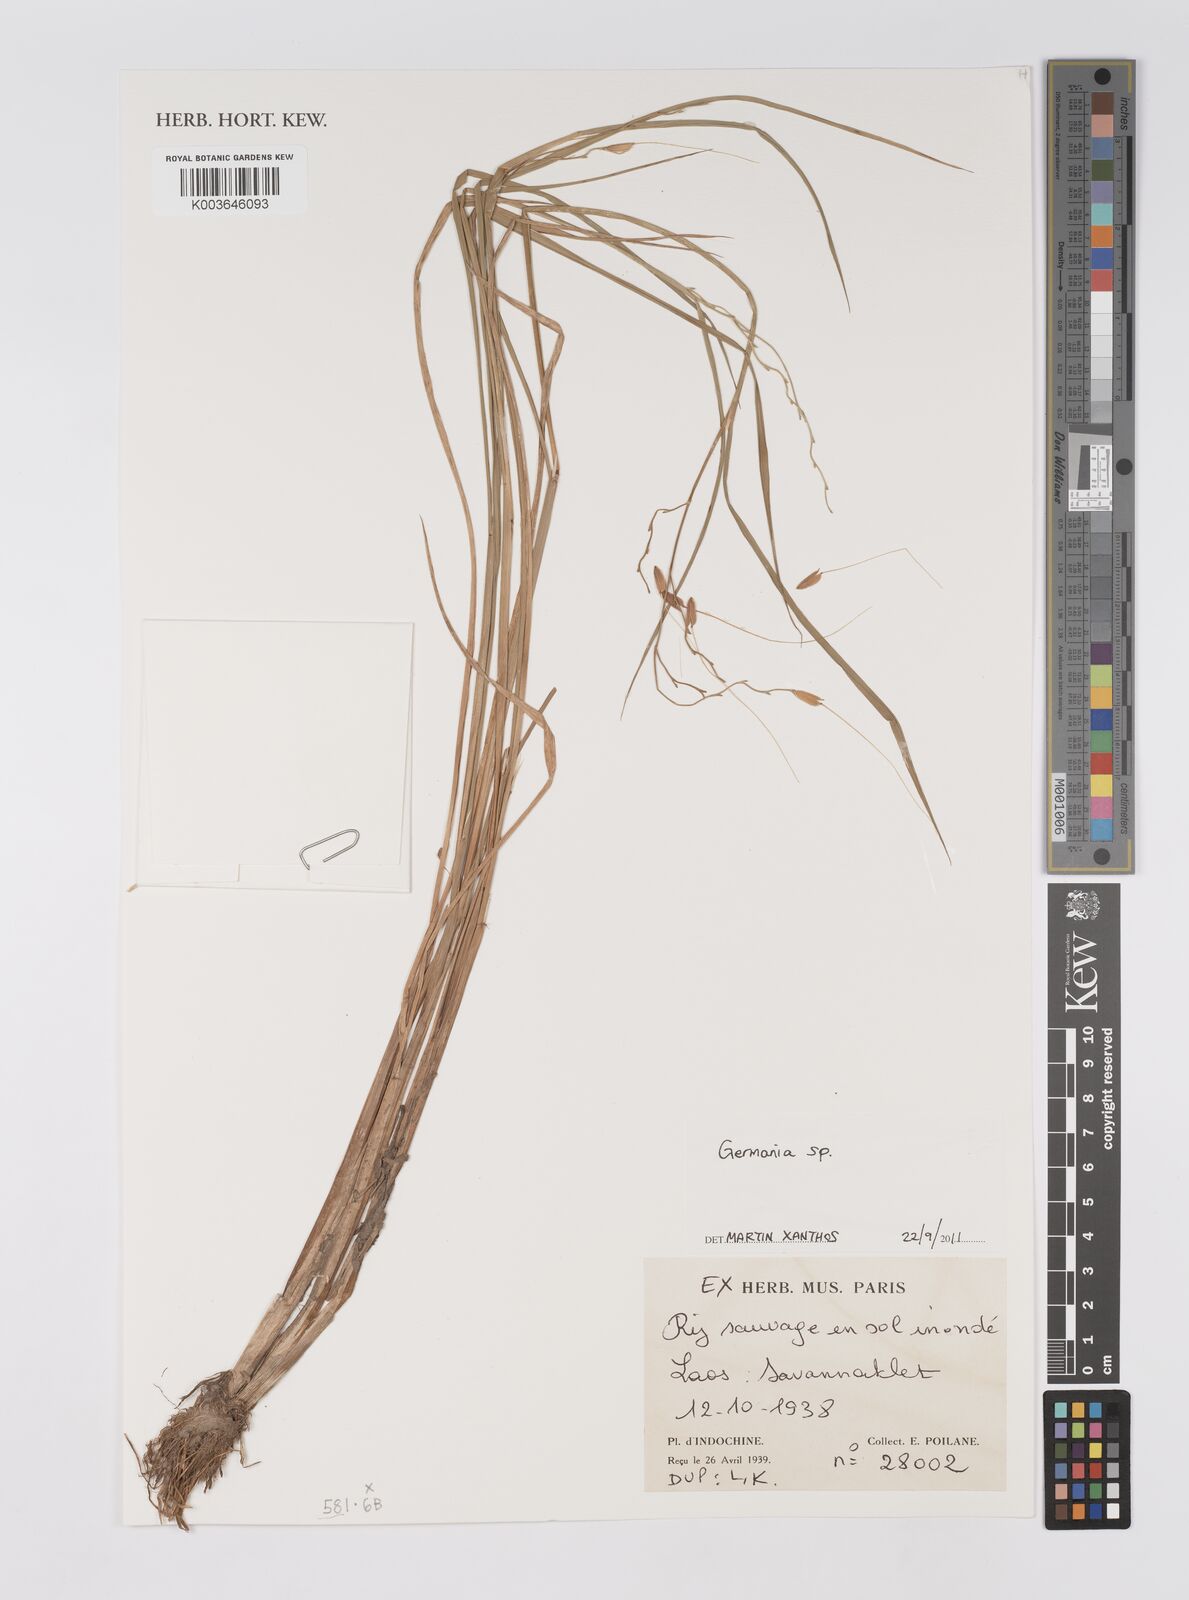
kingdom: Plantae
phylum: Tracheophyta
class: Liliopsida
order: Poales
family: Poaceae
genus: Germainia
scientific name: Germainia
